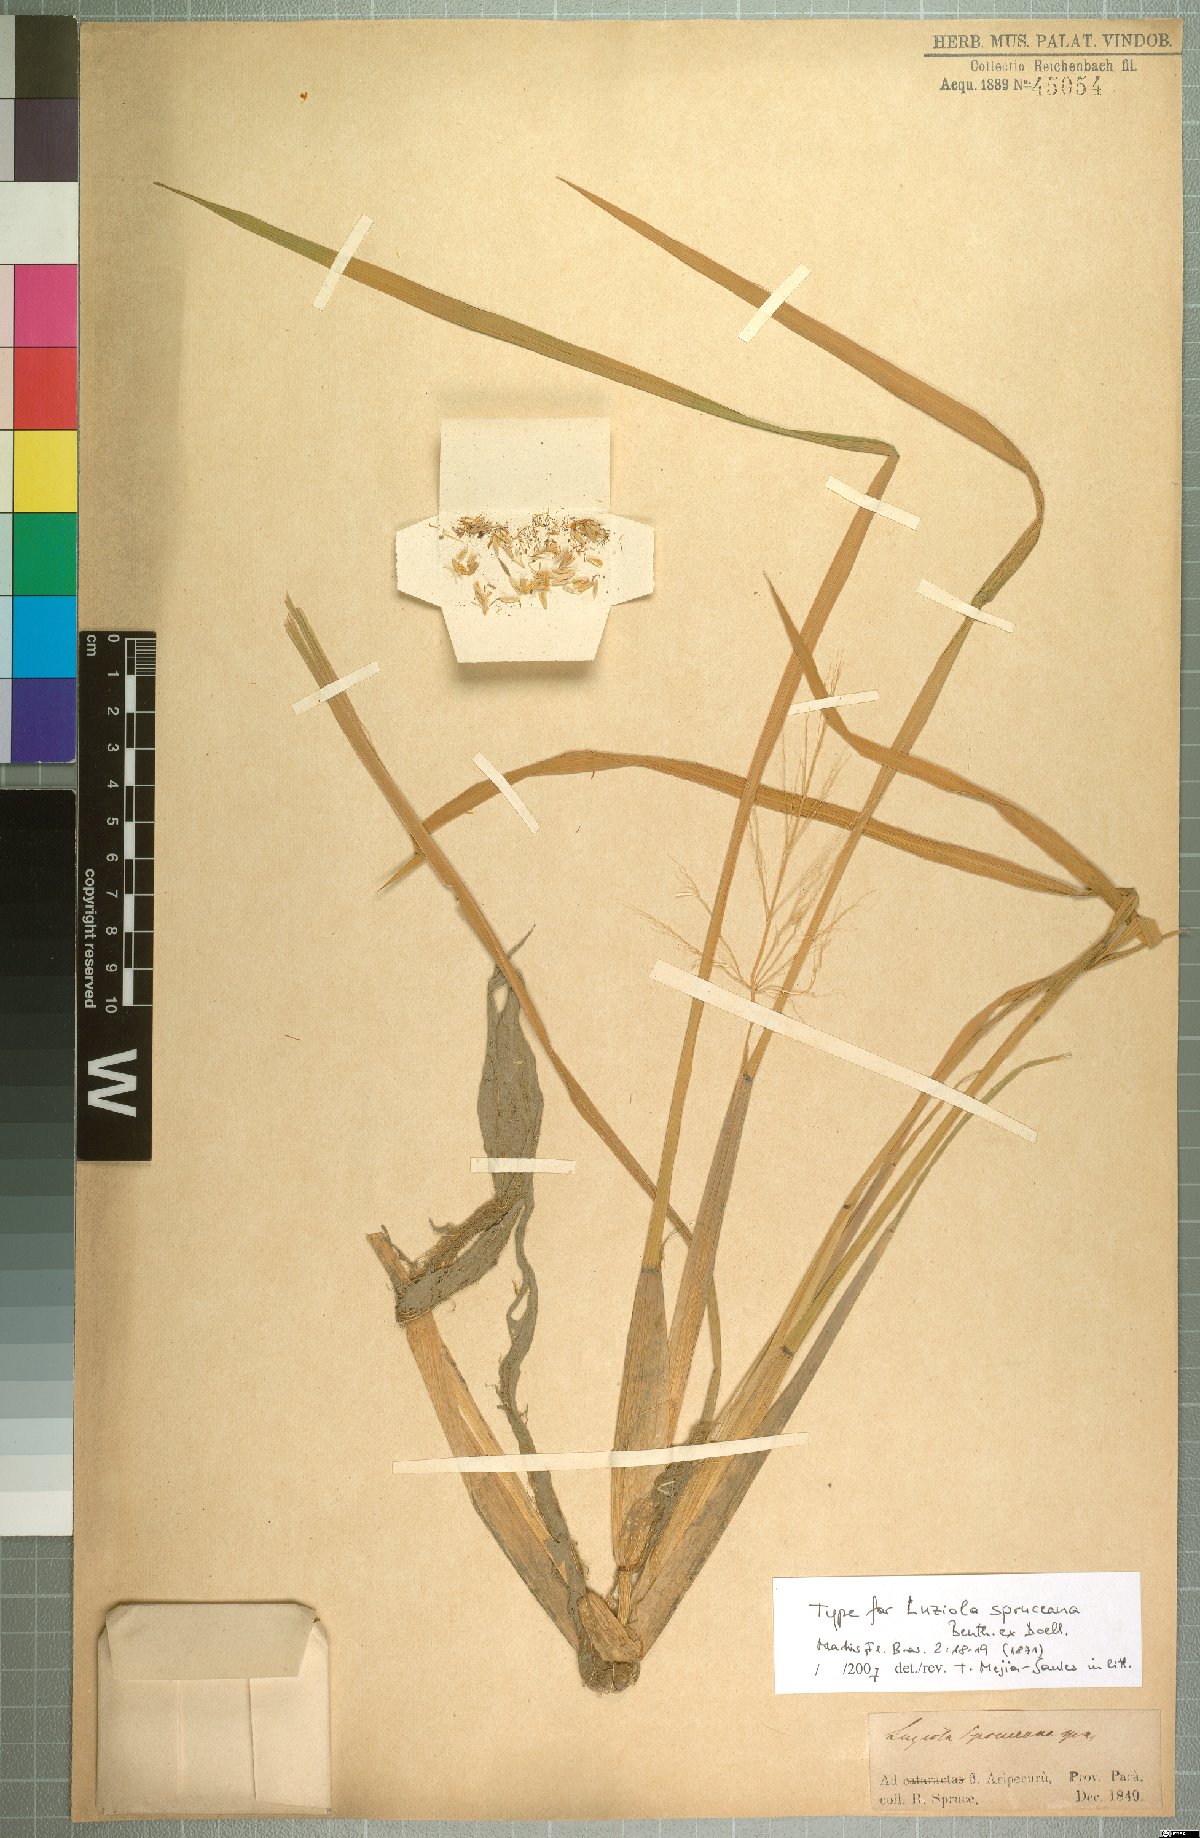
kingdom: Plantae
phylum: Tracheophyta
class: Liliopsida
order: Poales
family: Poaceae
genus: Luziola
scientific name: Luziola spruceana
